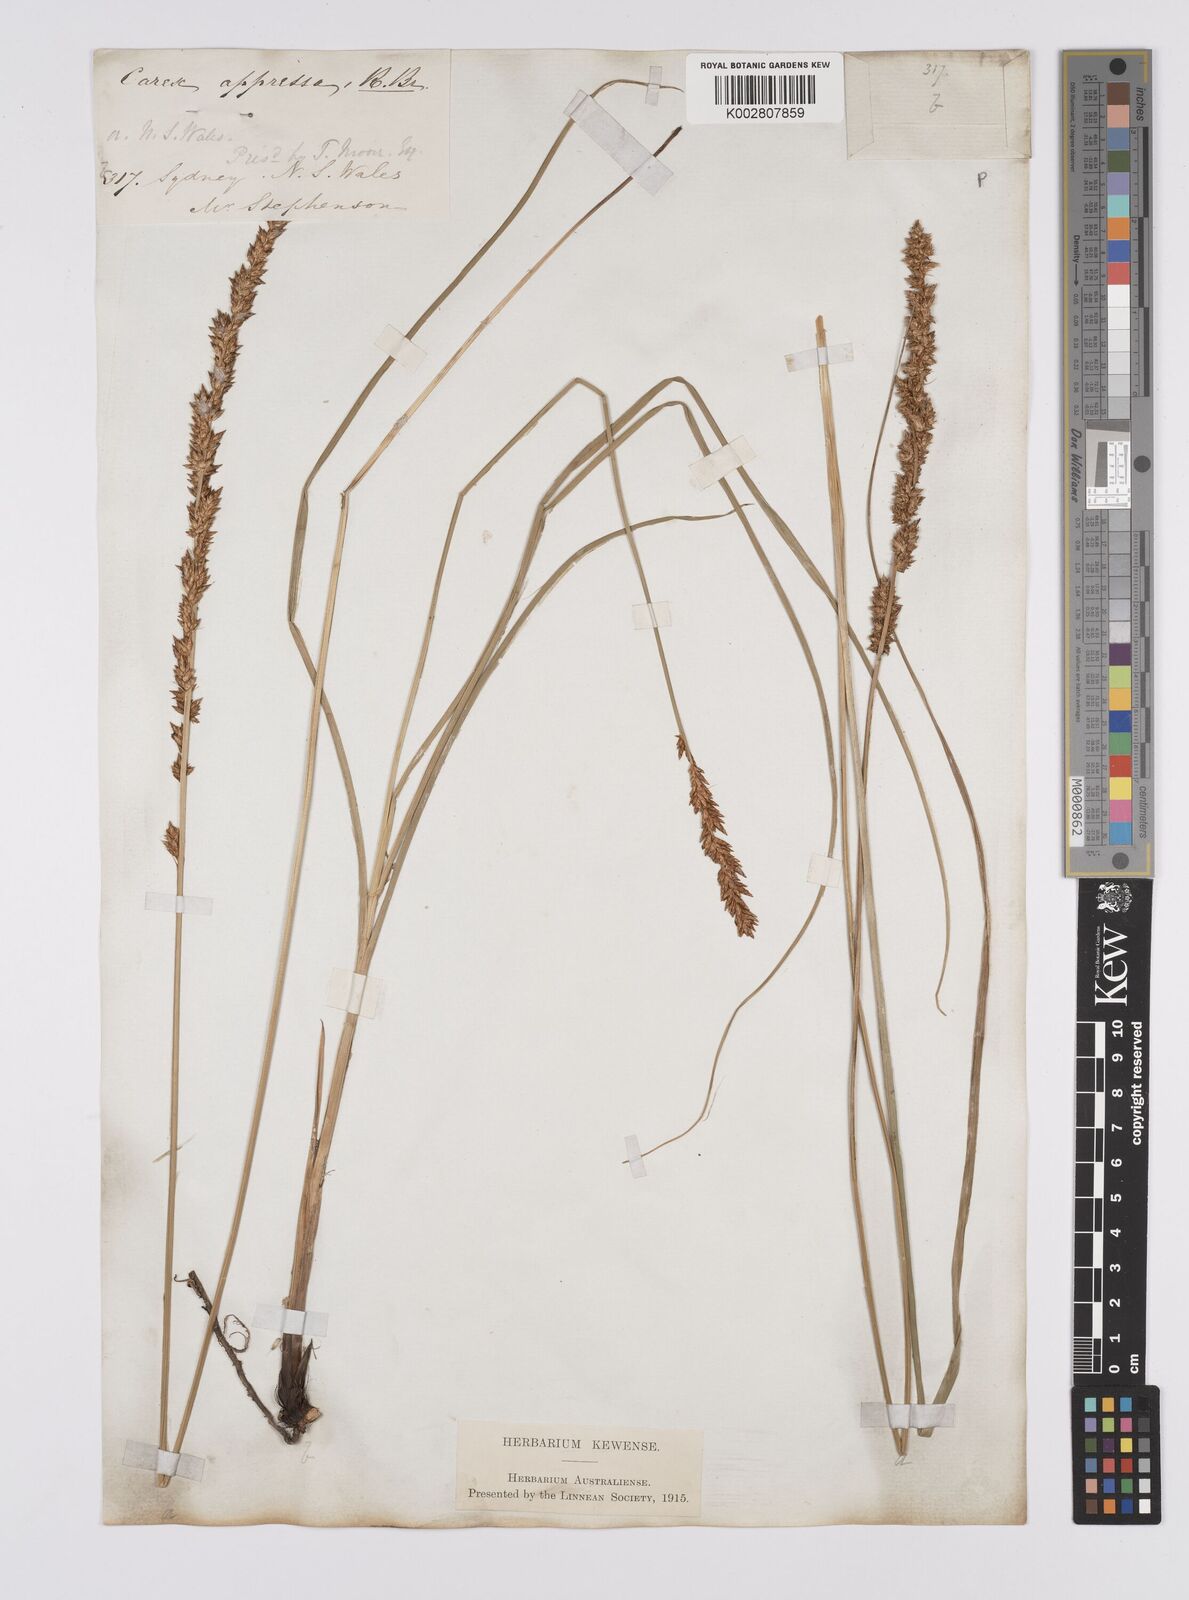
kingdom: Plantae
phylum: Tracheophyta
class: Liliopsida
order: Poales
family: Cyperaceae
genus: Carex
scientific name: Carex appressa
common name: Tussock sedge
